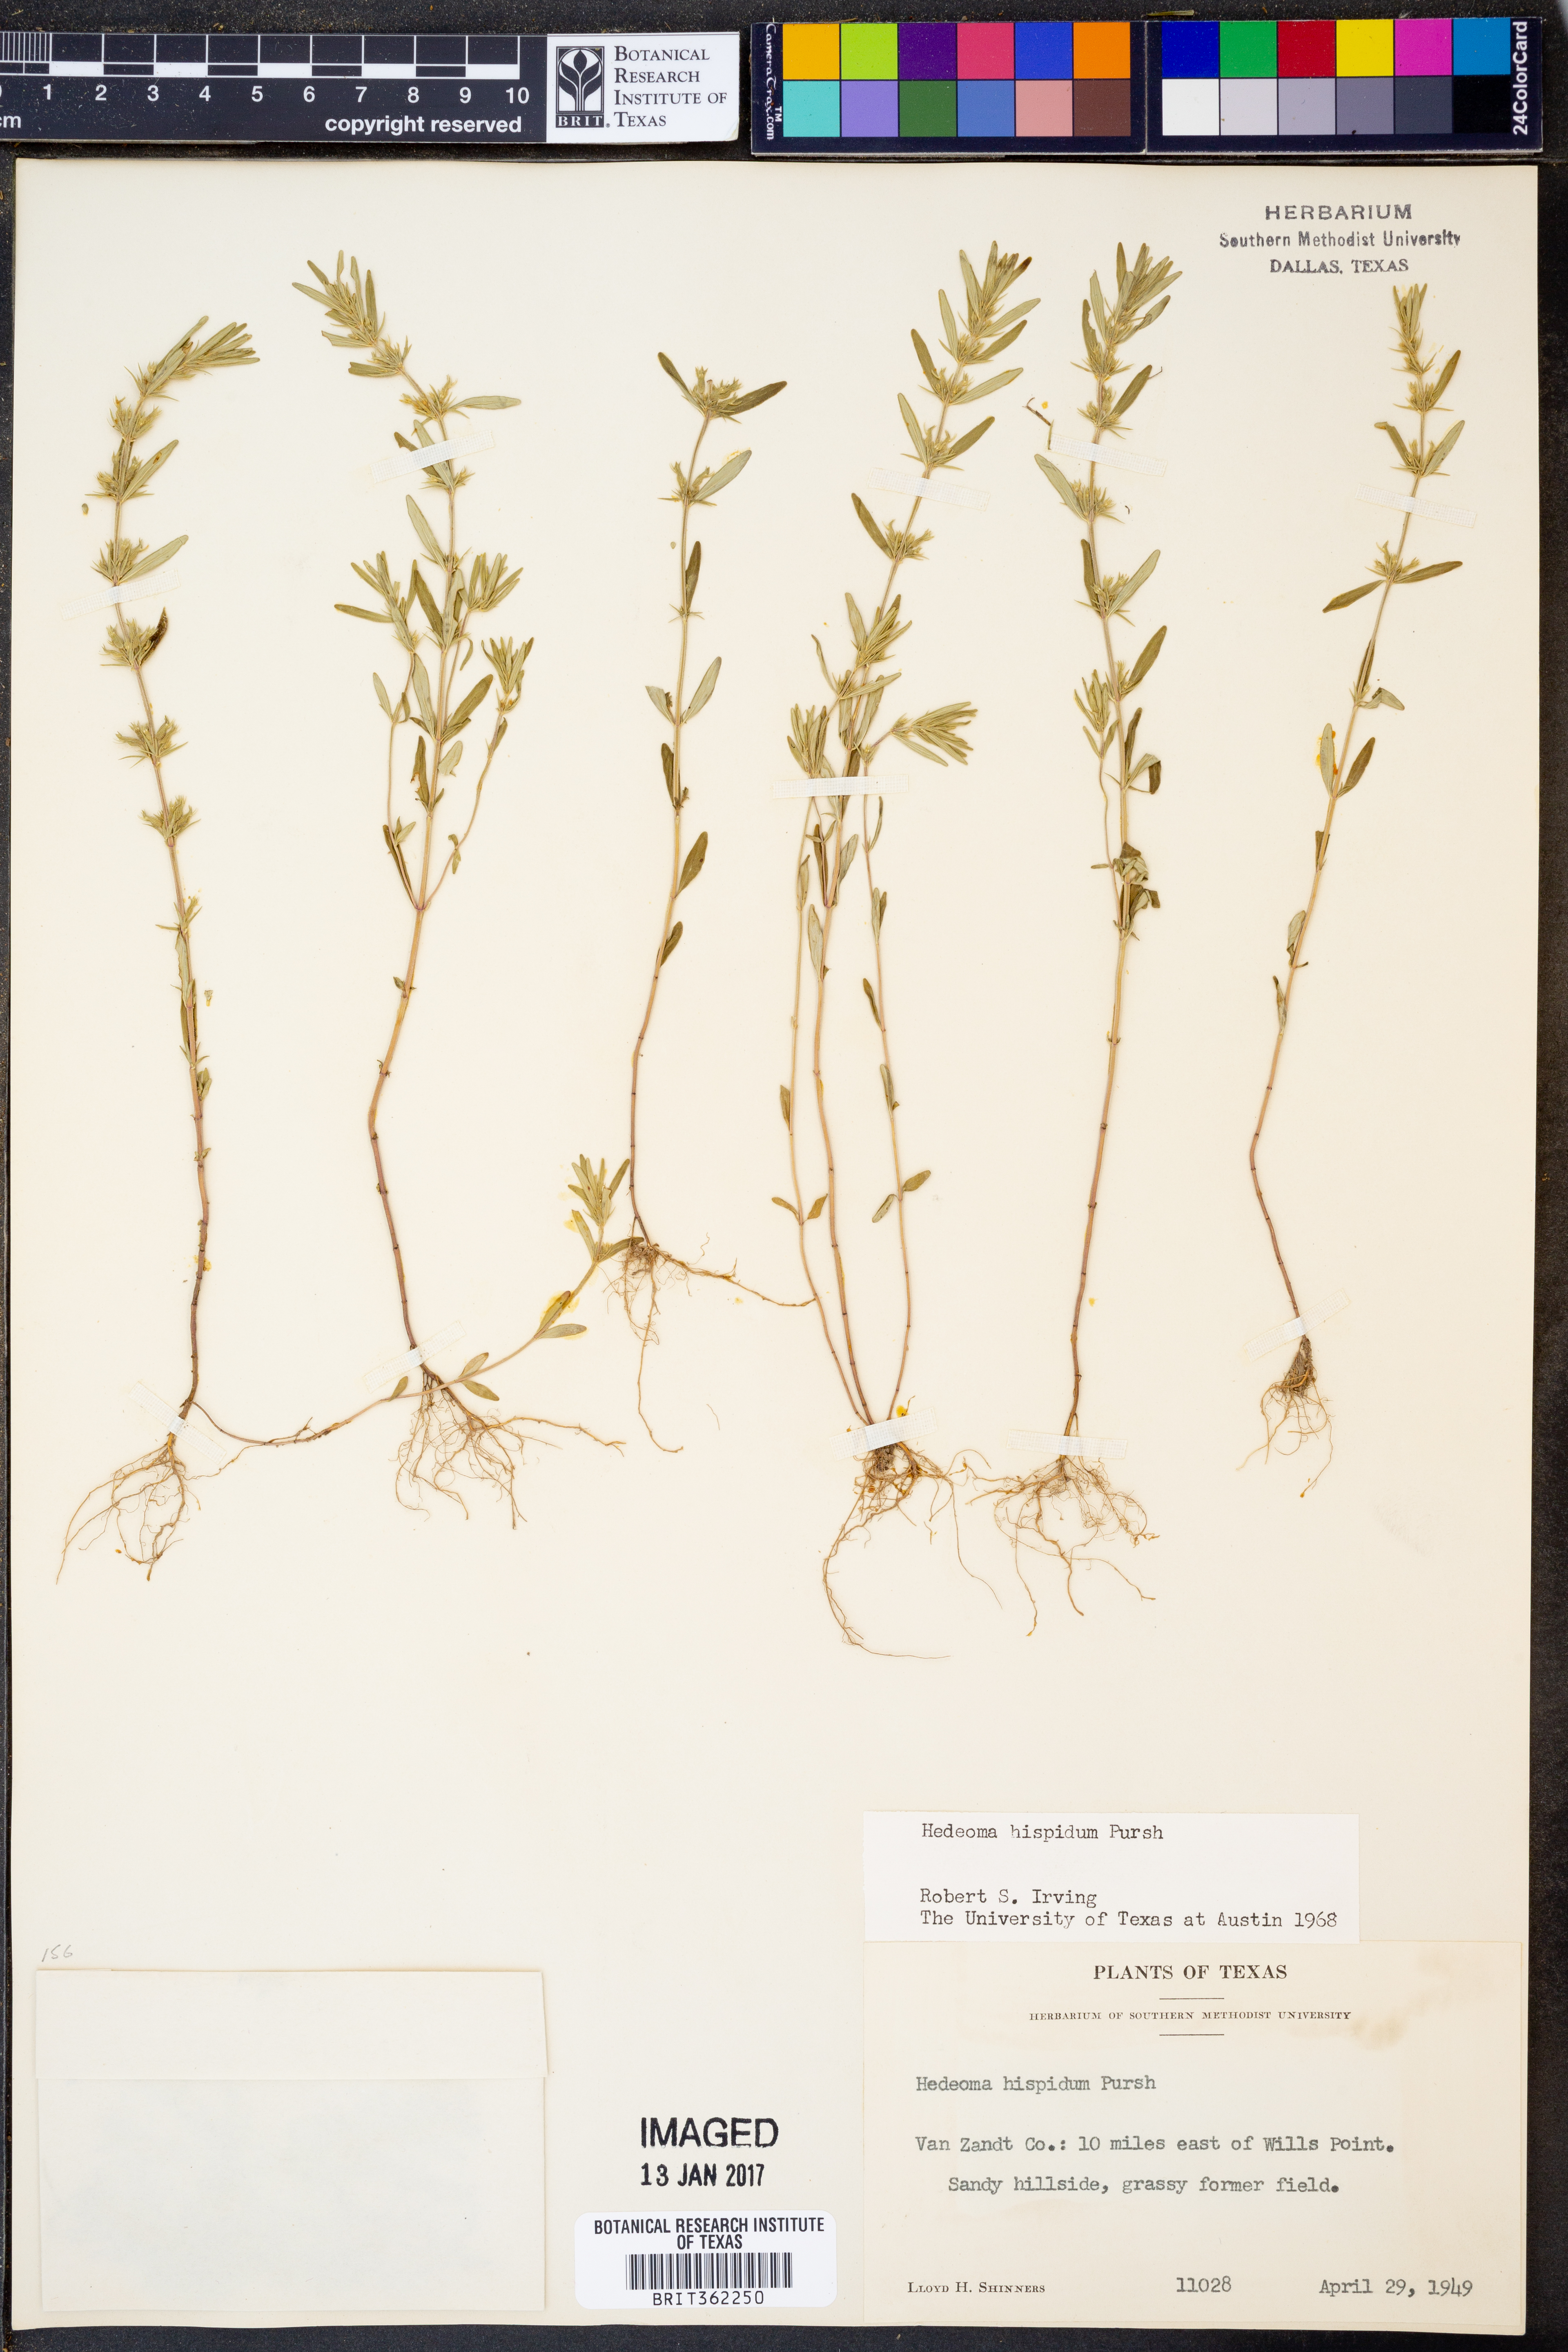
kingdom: Plantae
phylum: Tracheophyta
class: Magnoliopsida
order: Lamiales
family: Lamiaceae
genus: Hedeoma
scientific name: Hedeoma hispida
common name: Mock pennyroyal
